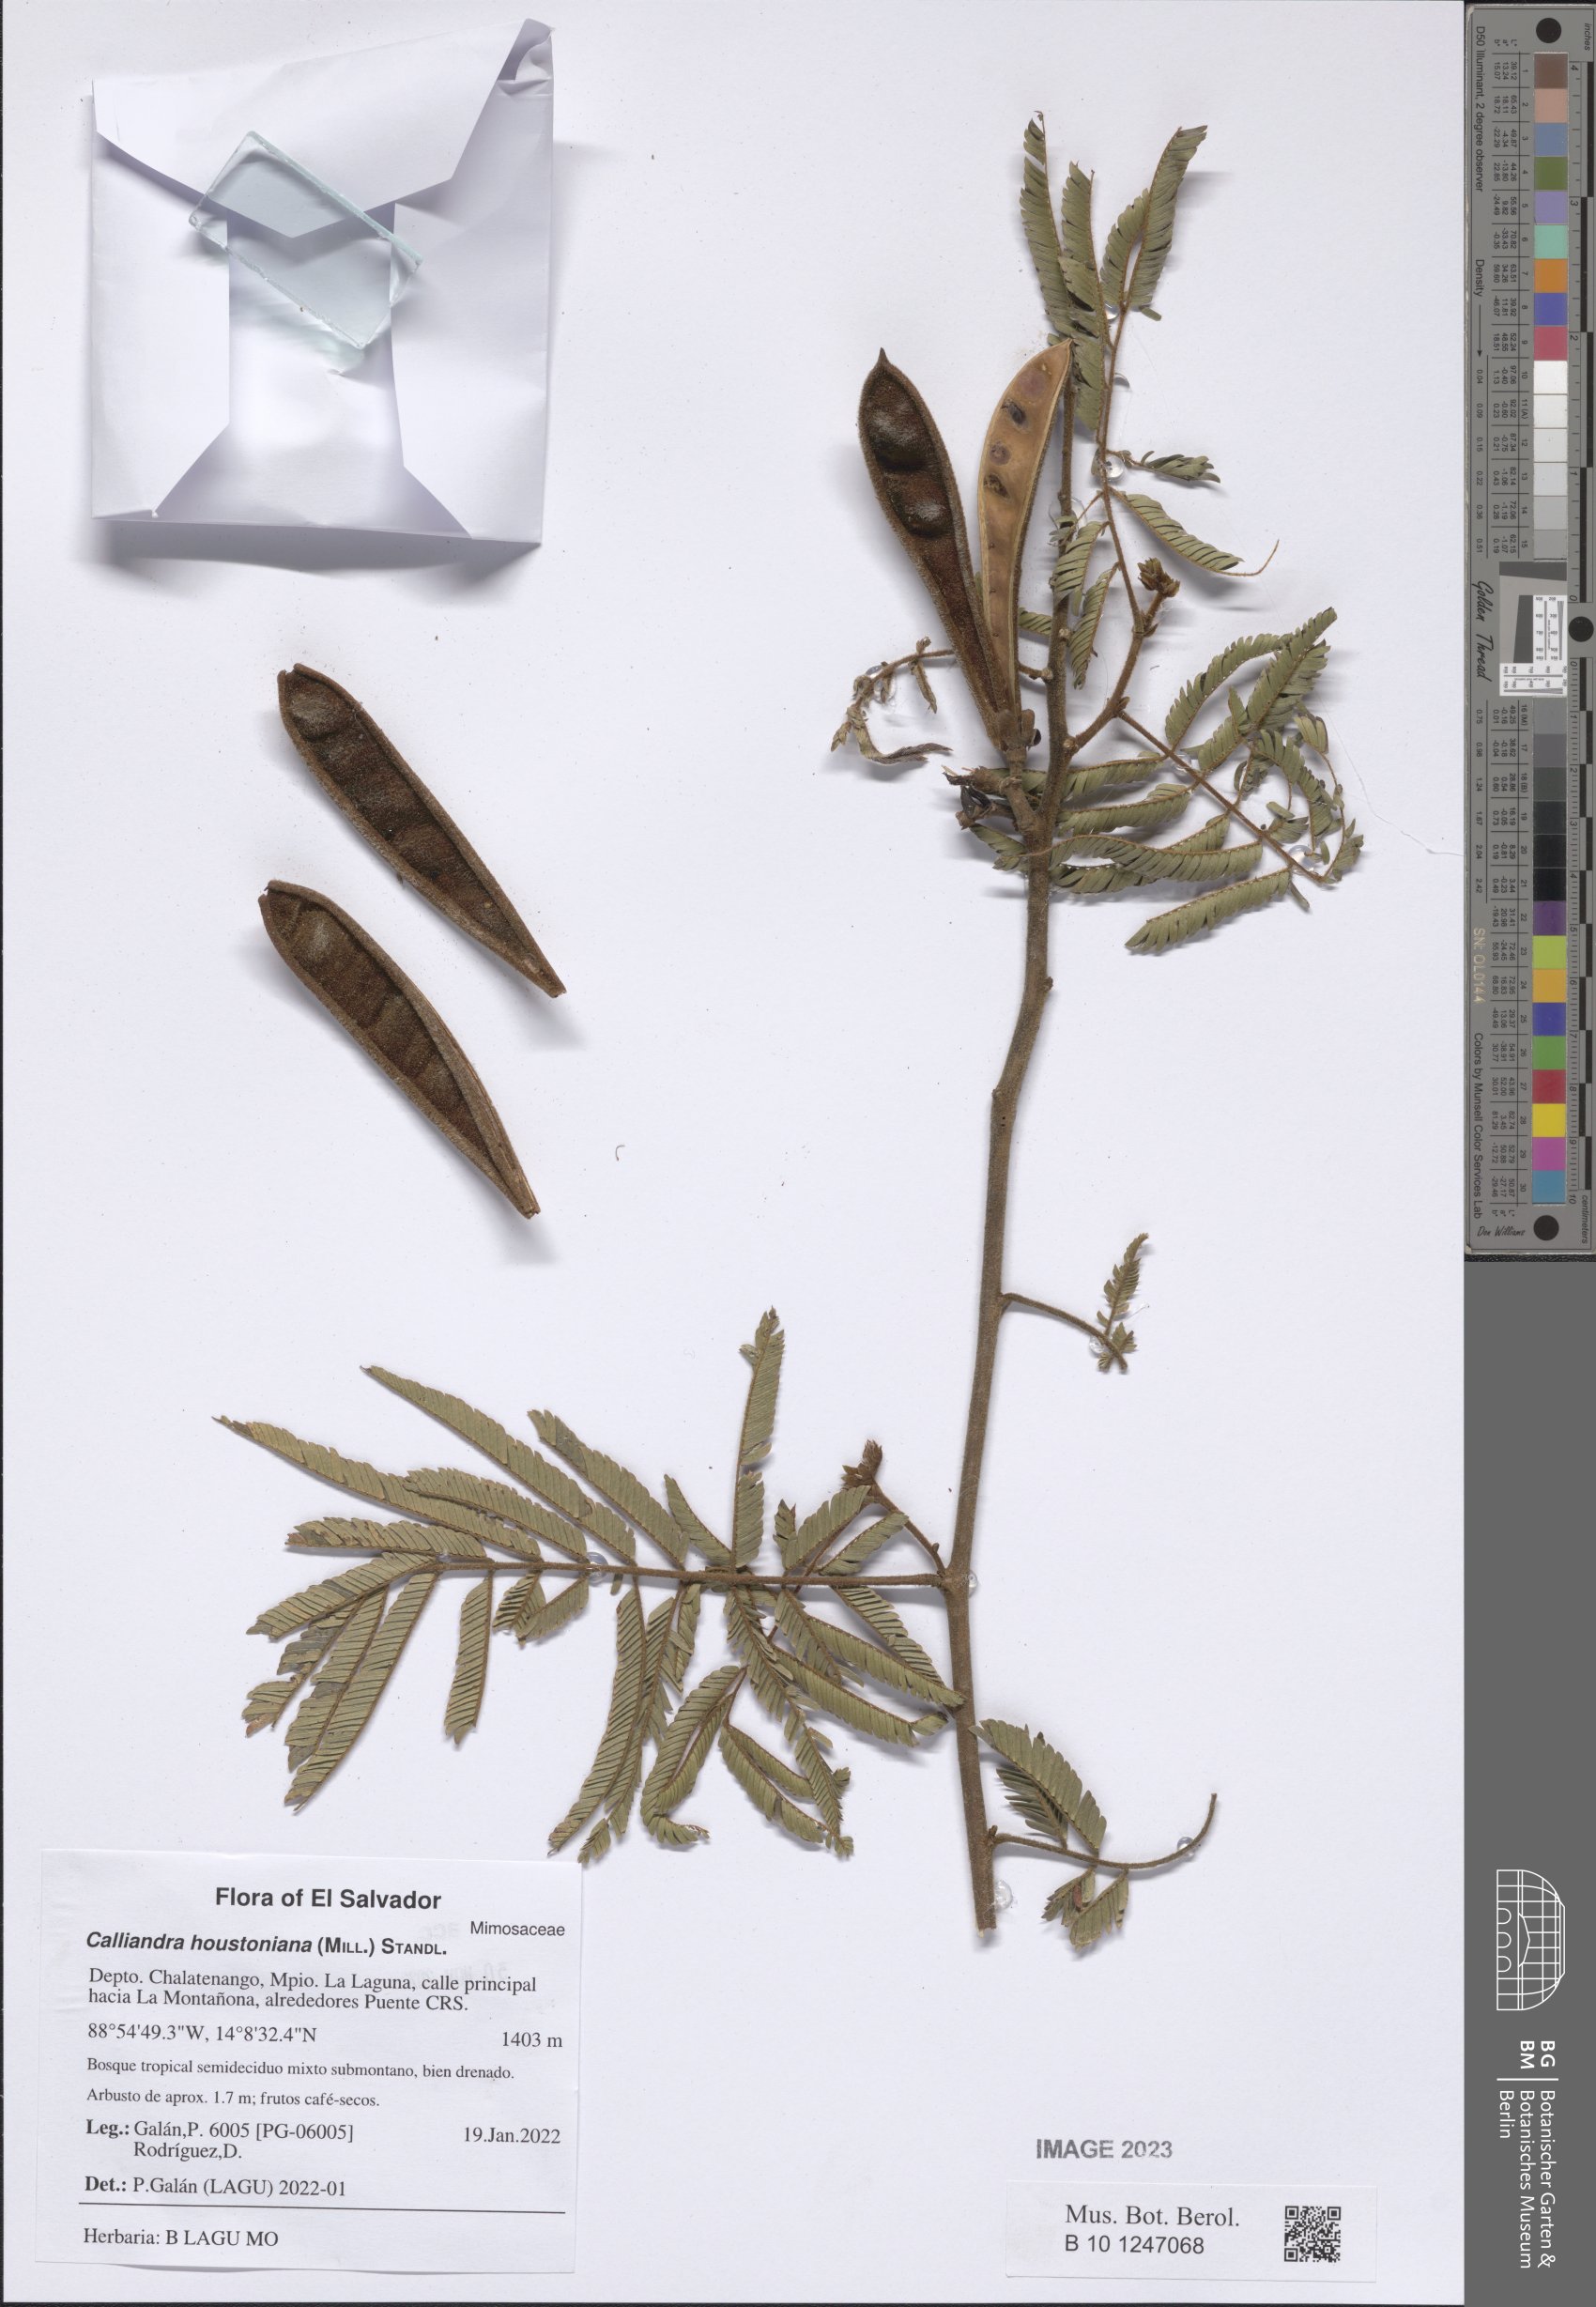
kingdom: Plantae
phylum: Tracheophyta
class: Magnoliopsida
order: Fabales
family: Fabaceae
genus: Calliandra
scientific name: Calliandra houstoniana
